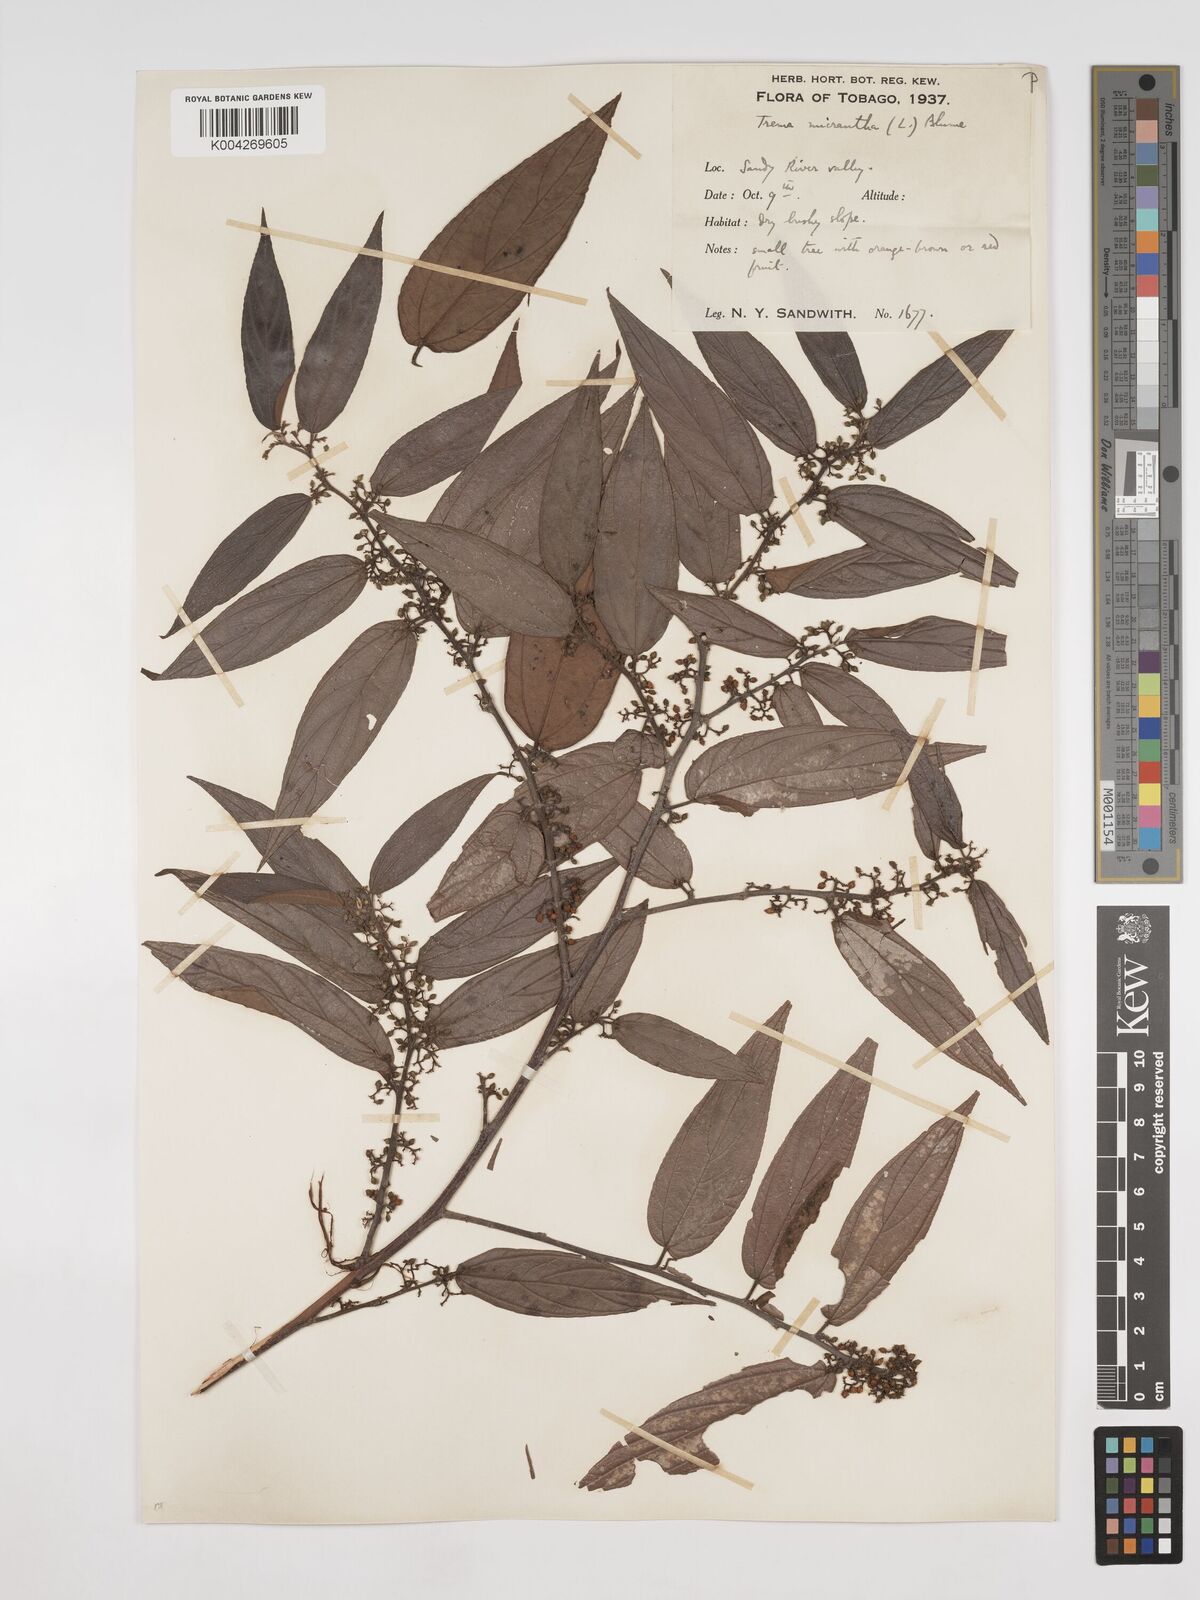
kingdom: Plantae
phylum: Tracheophyta
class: Magnoliopsida
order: Rosales
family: Cannabaceae
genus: Trema
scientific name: Trema micranthum
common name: Jamaican nettletree
